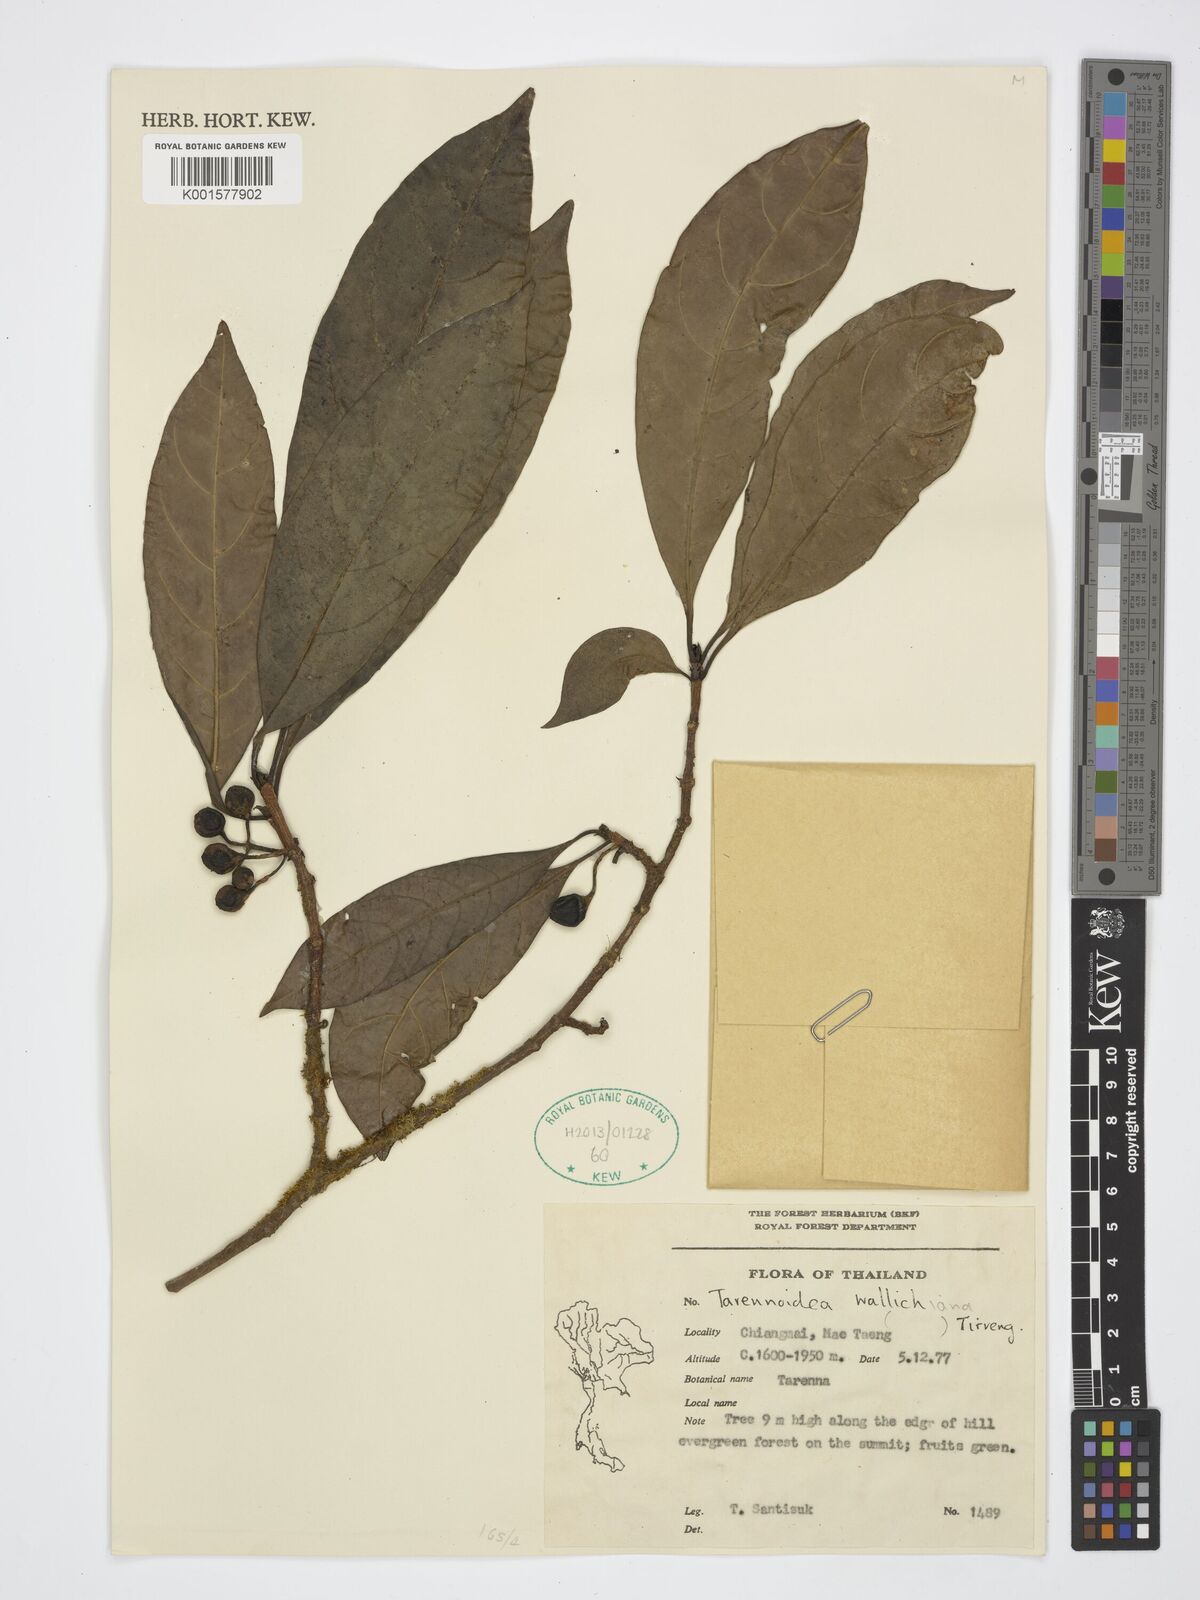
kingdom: Plantae
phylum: Tracheophyta
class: Magnoliopsida
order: Gentianales
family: Rubiaceae
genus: Tarennoidea
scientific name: Tarennoidea wallichii
